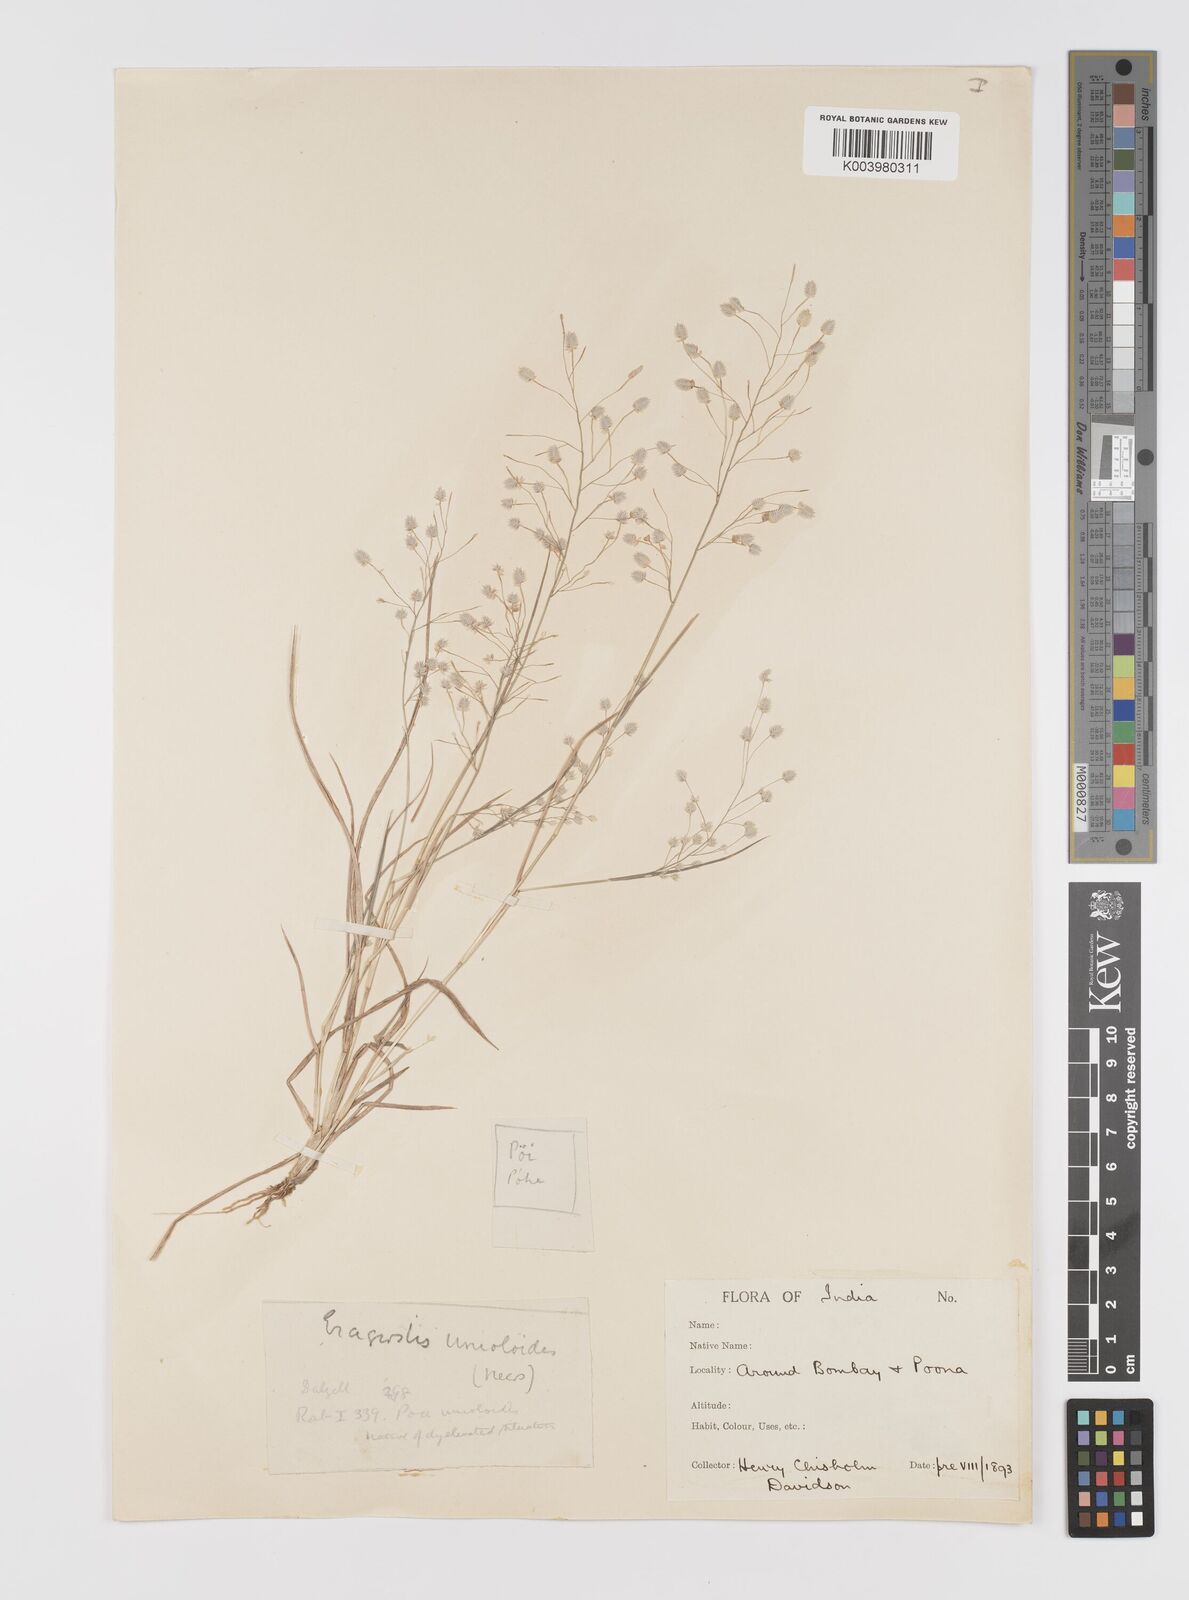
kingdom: Plantae
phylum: Tracheophyta
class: Liliopsida
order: Poales
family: Poaceae
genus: Eragrostis
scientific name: Eragrostis unioloides
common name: Chinese lovegrass
